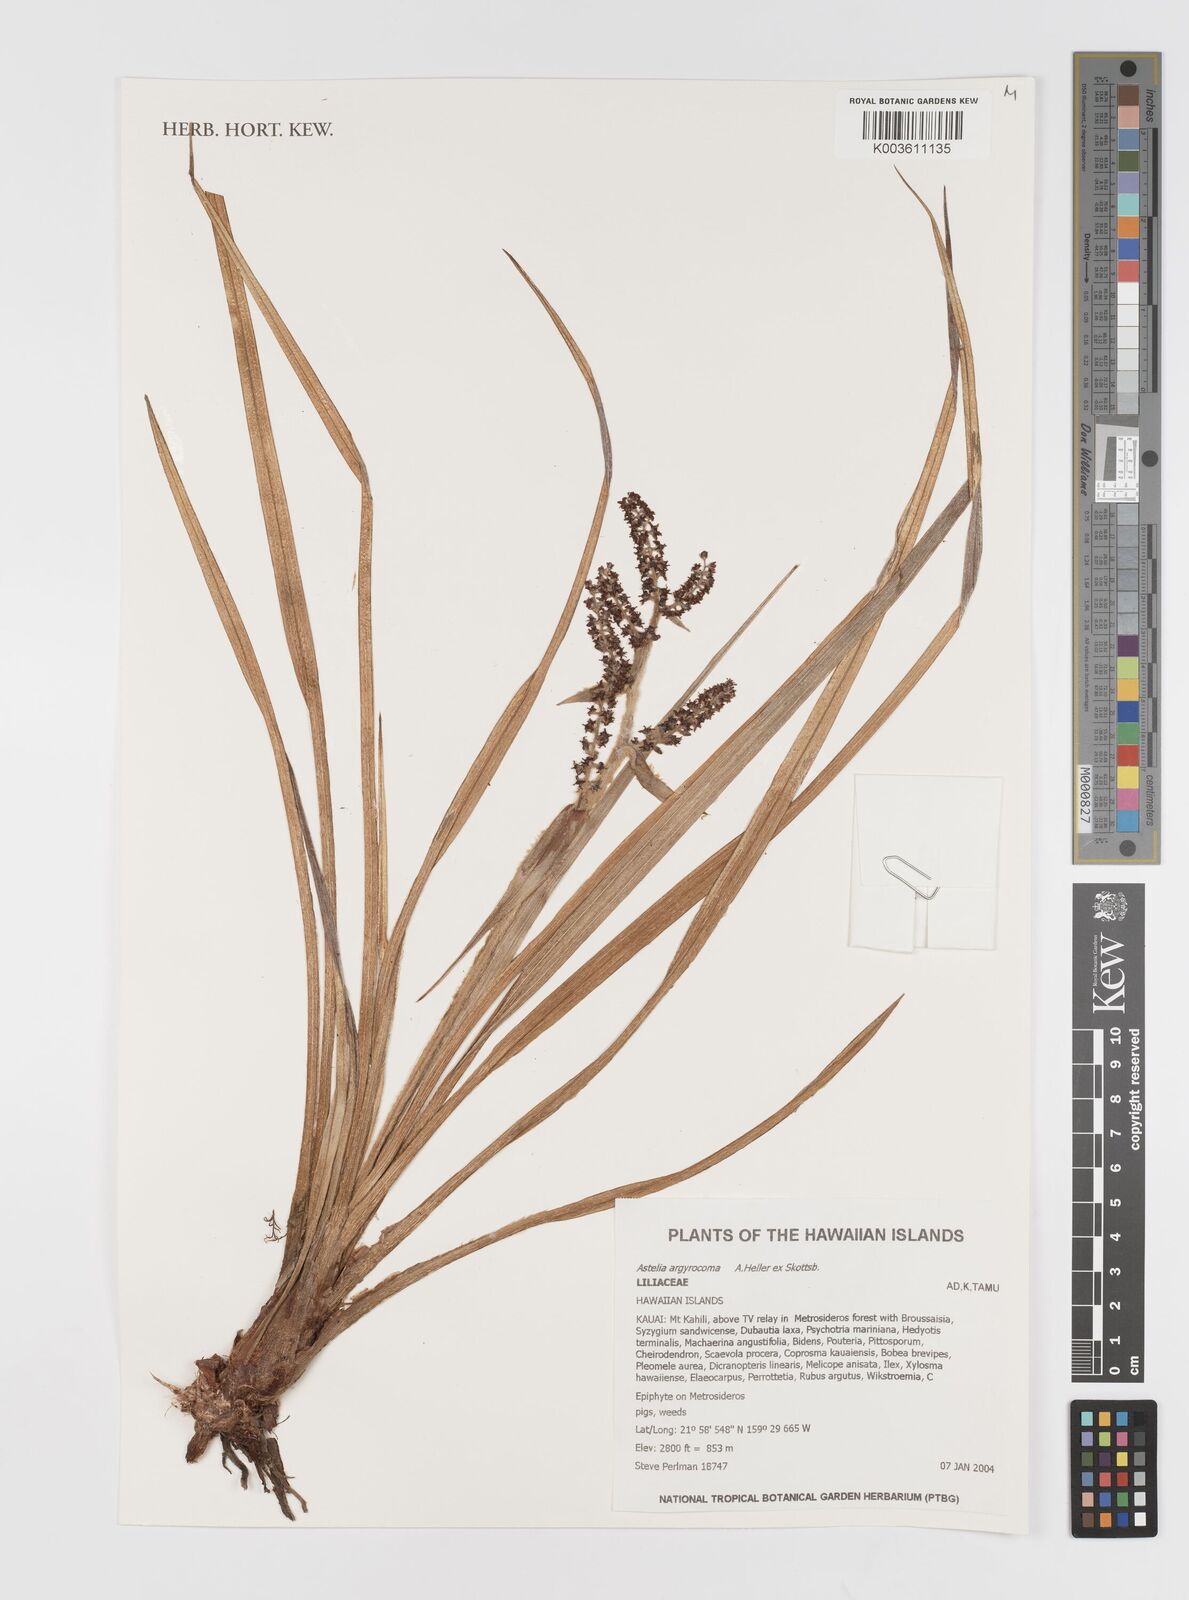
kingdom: Plantae
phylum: Tracheophyta
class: Liliopsida
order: Asparagales
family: Asteliaceae
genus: Astelia
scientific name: Astelia argyrocoma
